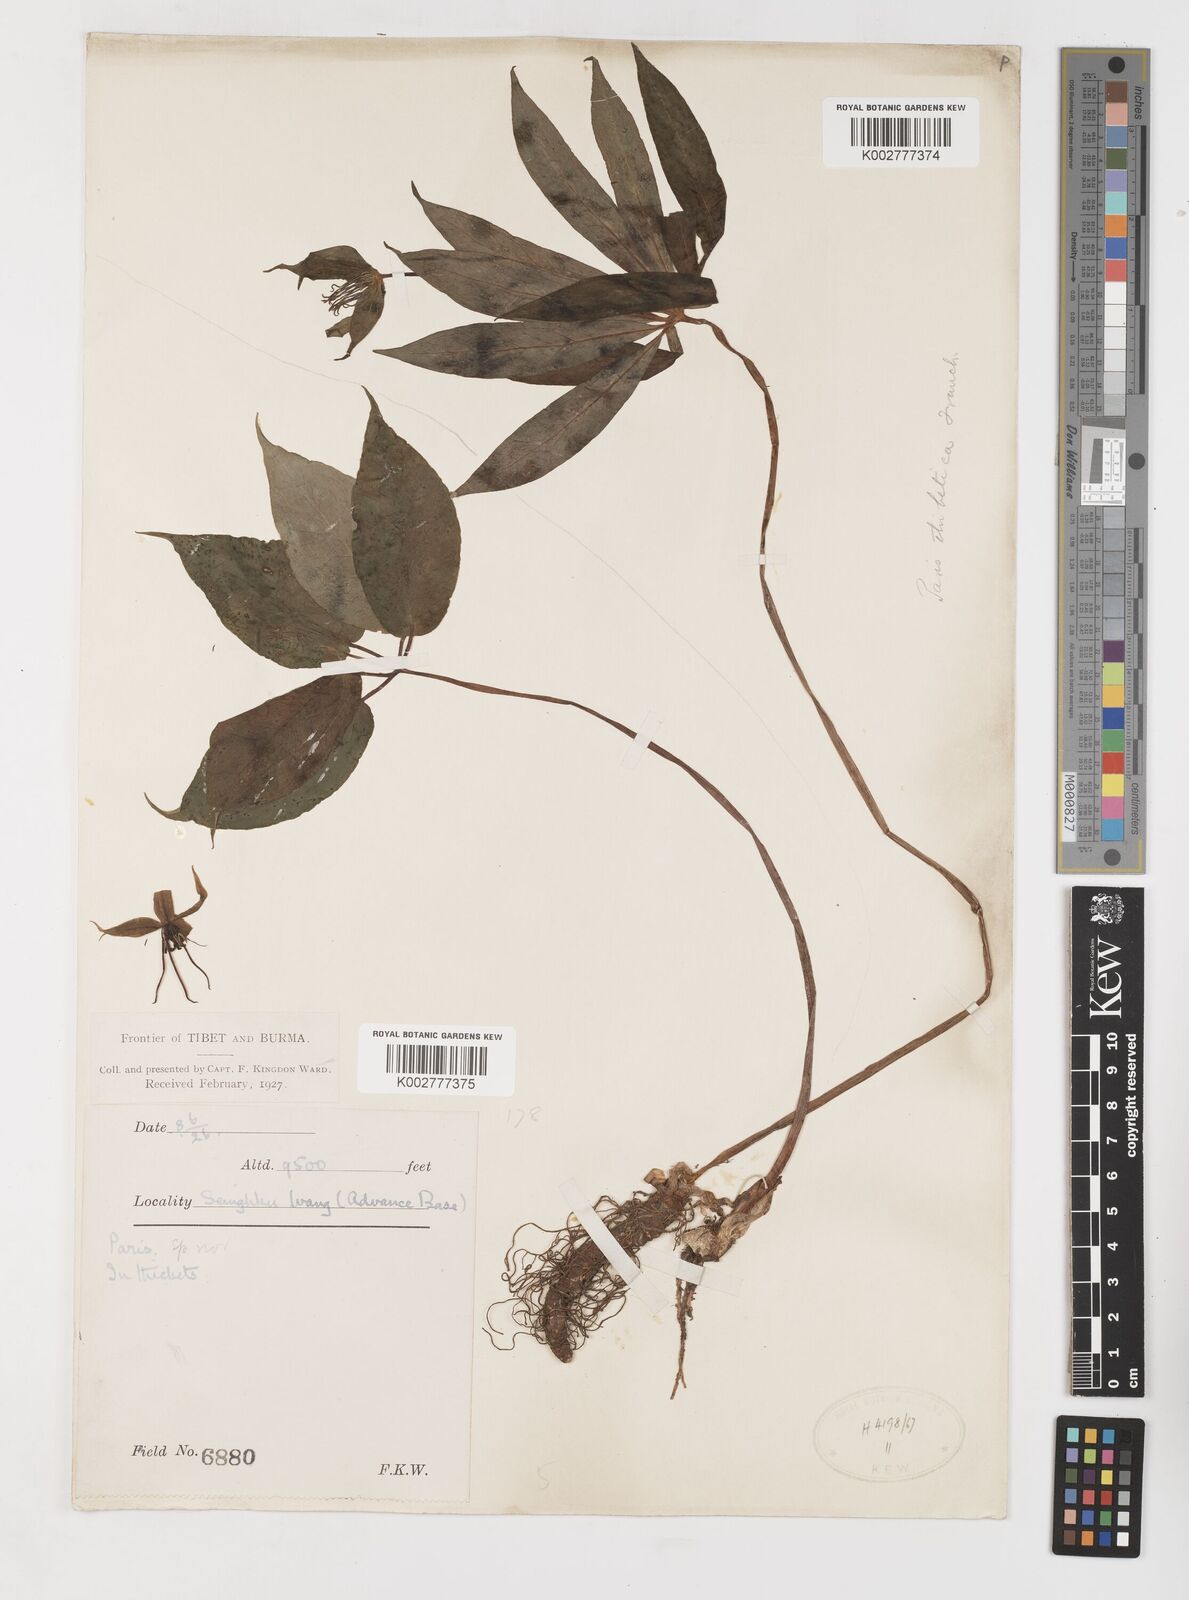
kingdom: Plantae
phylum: Tracheophyta
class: Liliopsida
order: Liliales
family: Melanthiaceae
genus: Paris
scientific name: Paris
